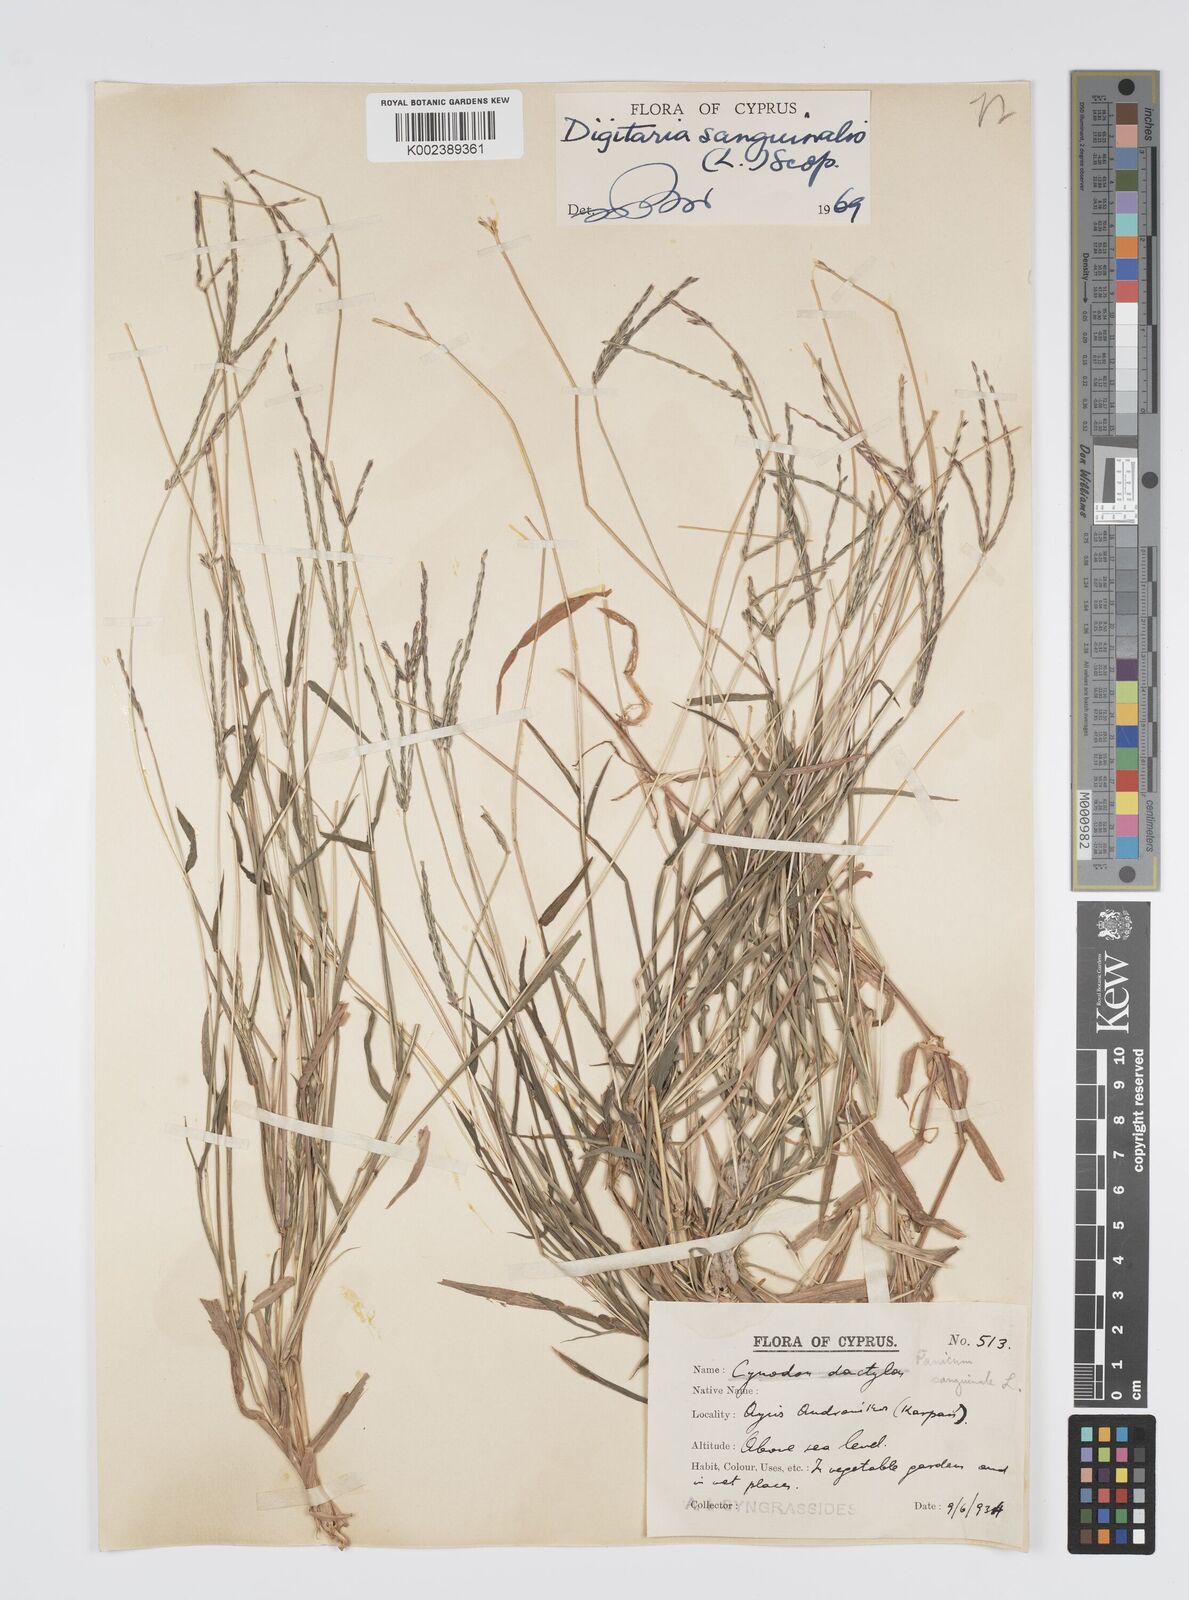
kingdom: Plantae
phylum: Tracheophyta
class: Liliopsida
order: Poales
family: Poaceae
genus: Digitaria
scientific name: Digitaria sanguinalis
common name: Hairy crabgrass
